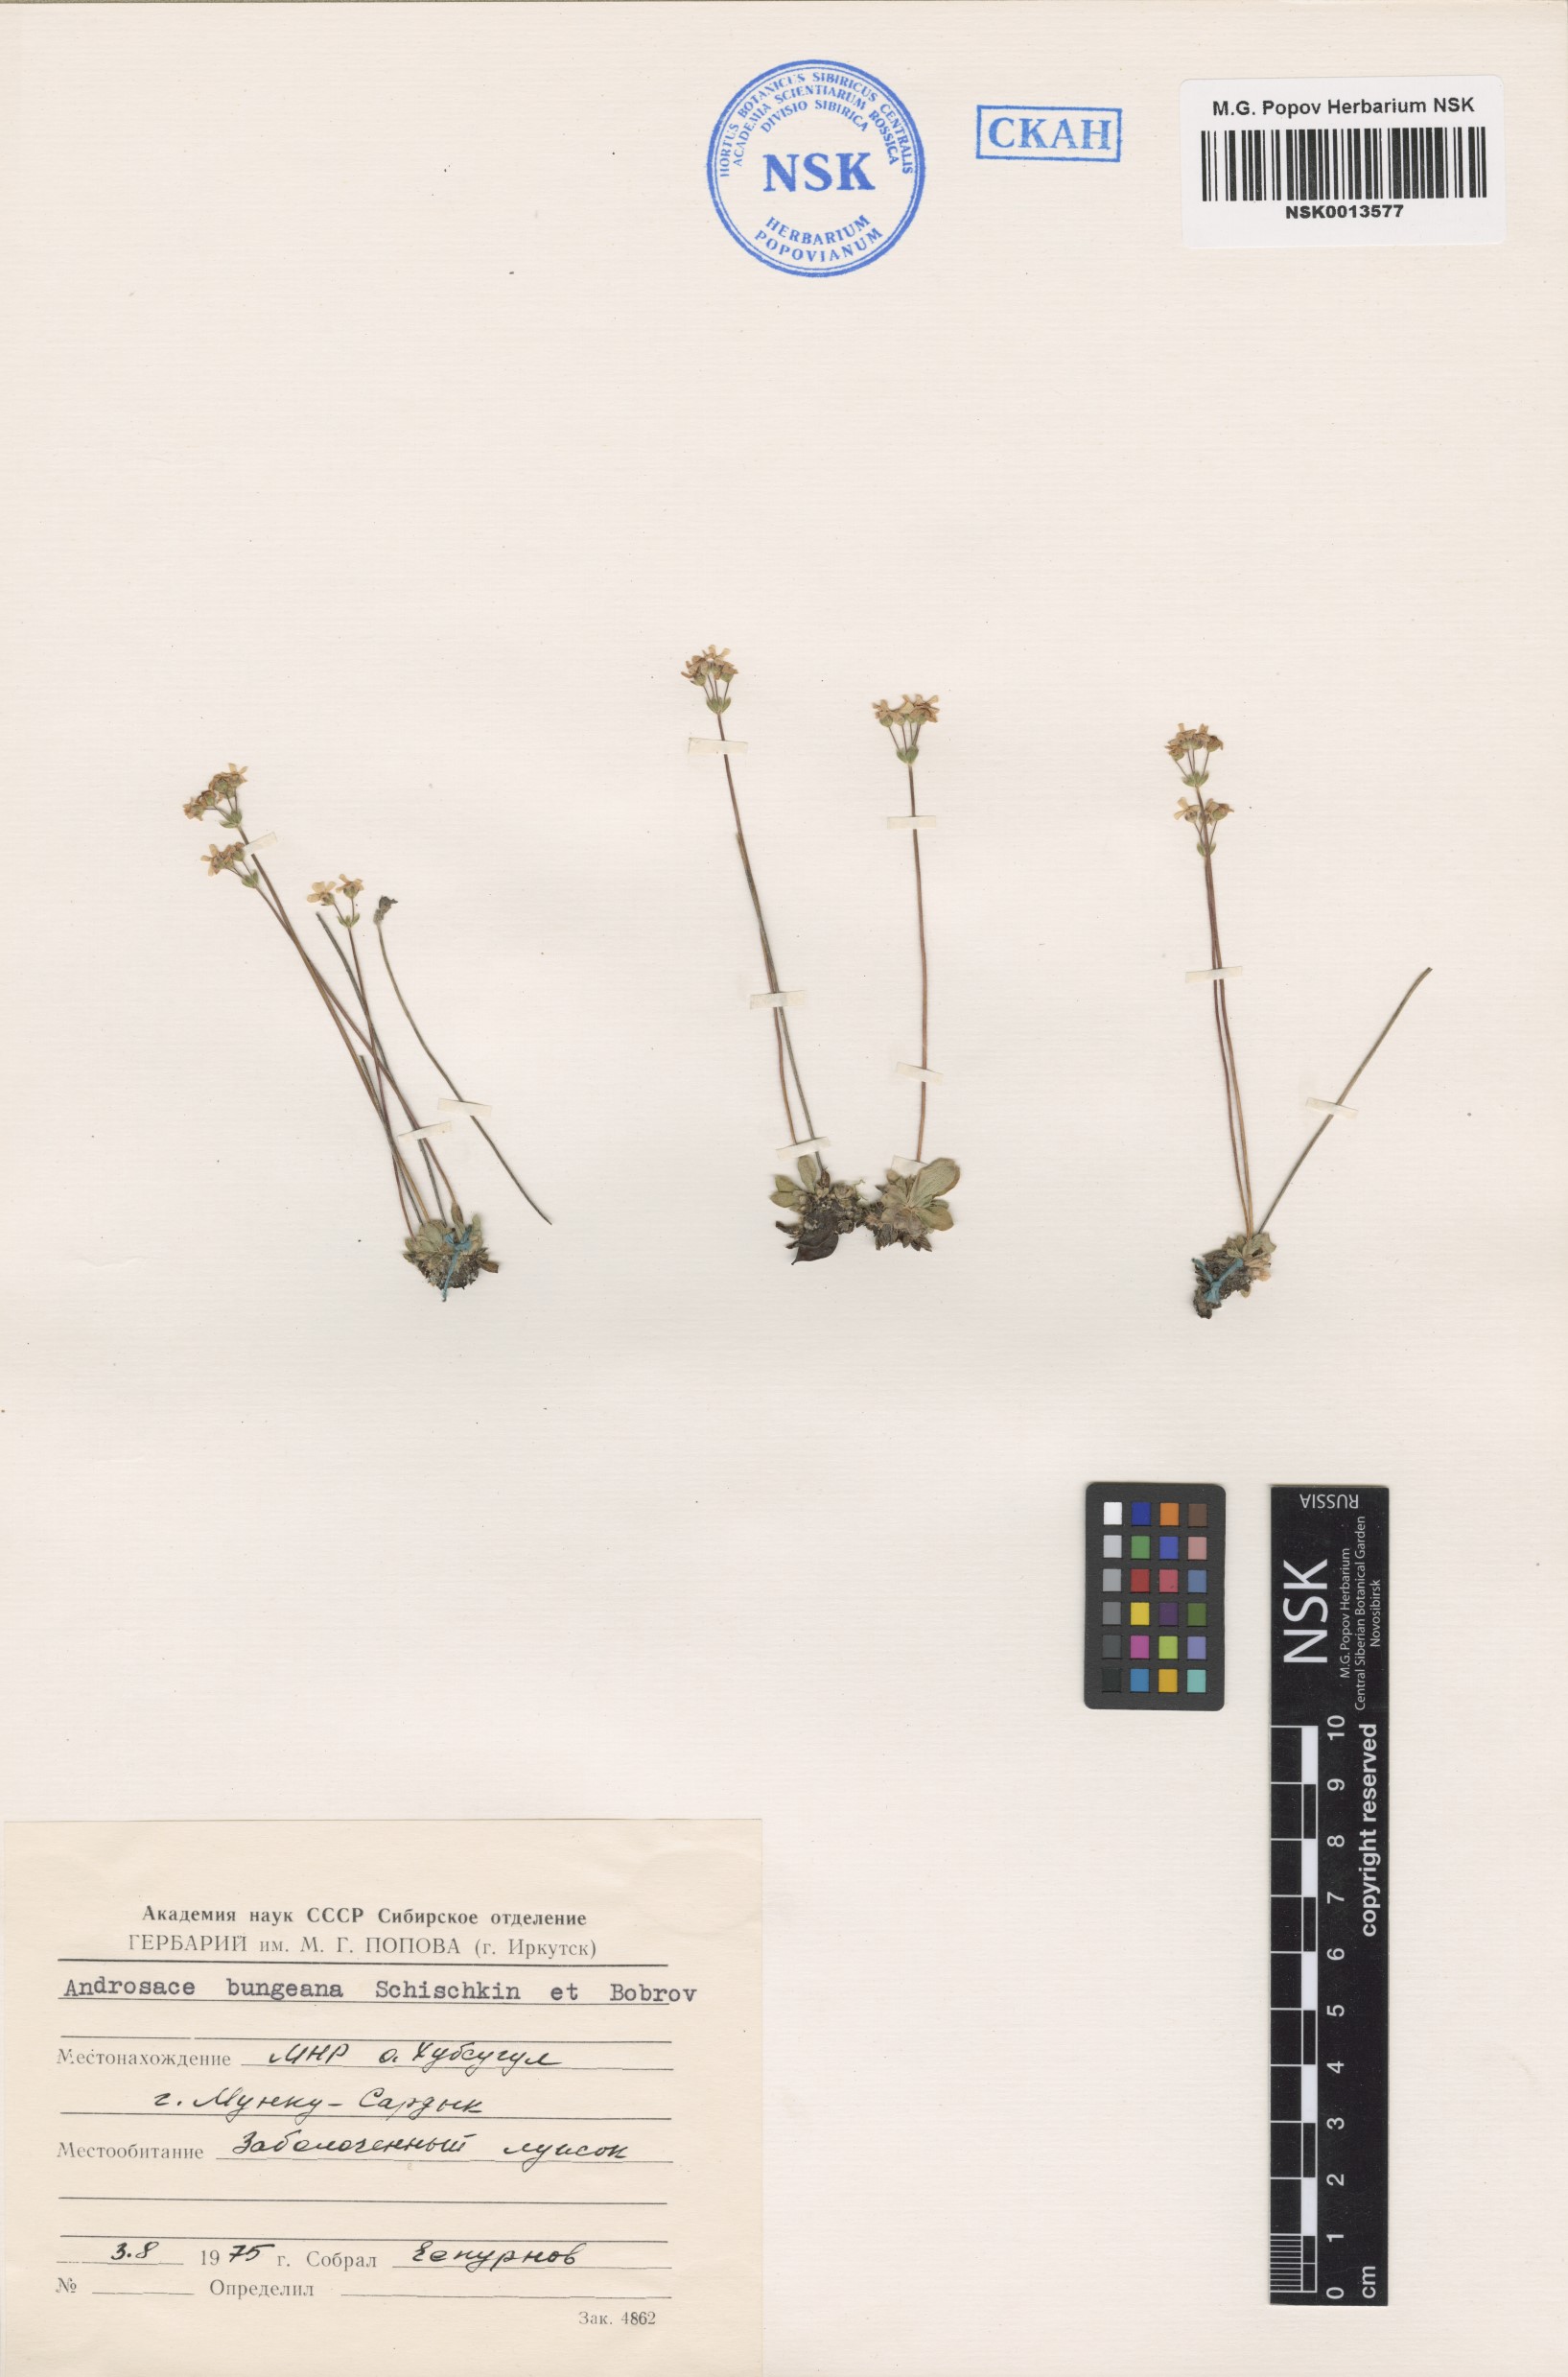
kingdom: Plantae
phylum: Tracheophyta
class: Magnoliopsida
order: Ericales
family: Primulaceae
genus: Androsace
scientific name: Androsace bungeana
